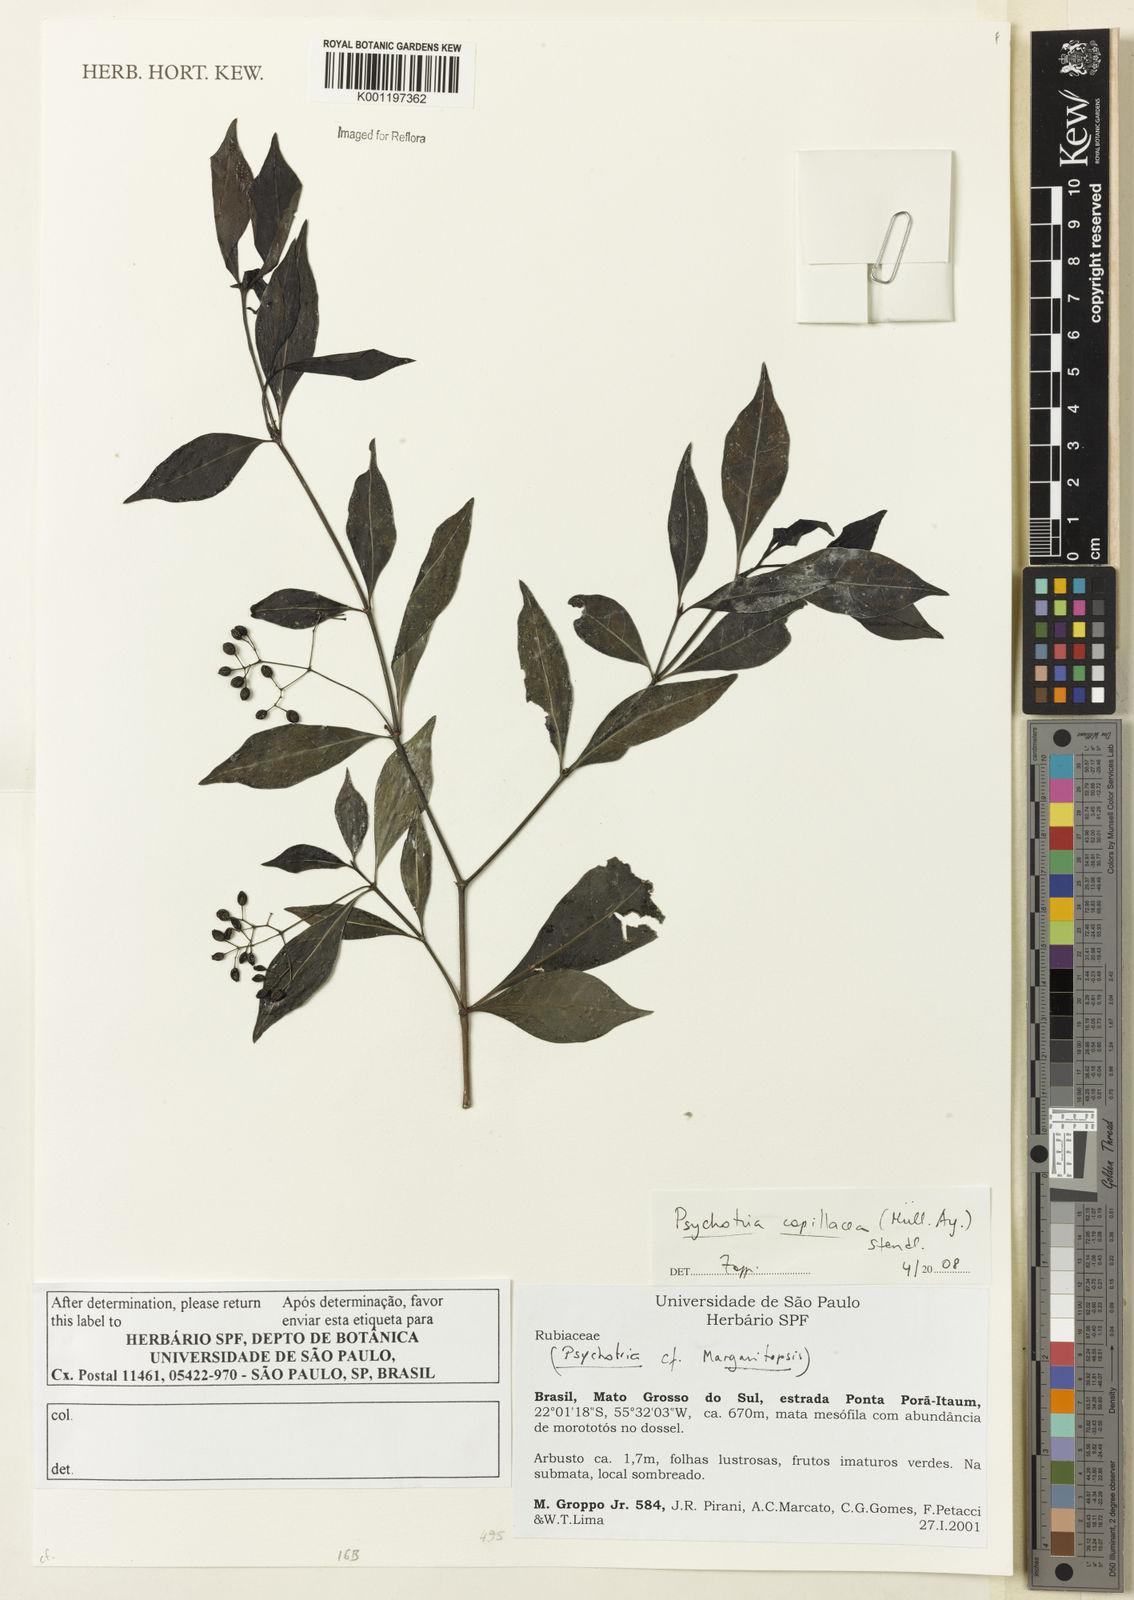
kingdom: Plantae
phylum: Tracheophyta
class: Magnoliopsida
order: Gentianales
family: Rubiaceae
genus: Psychotria
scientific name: Psychotria
